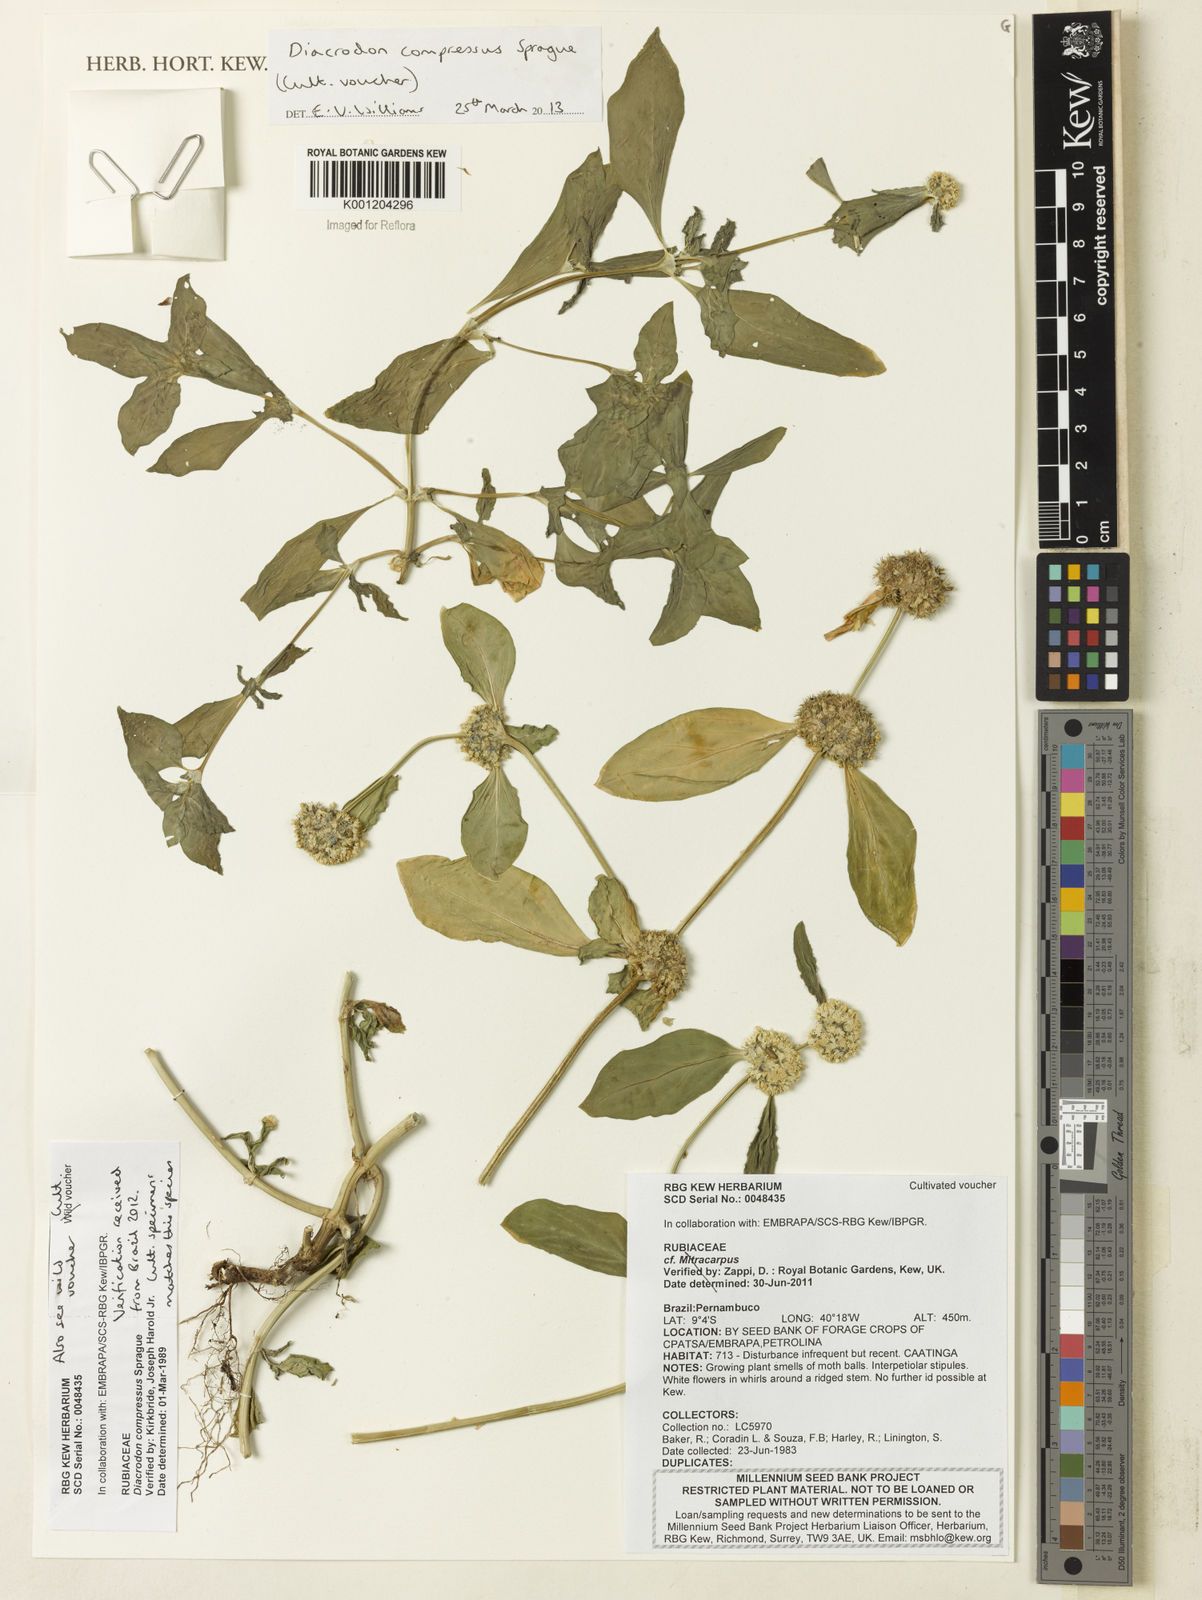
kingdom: Plantae
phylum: Tracheophyta
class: Magnoliopsida
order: Gentianales
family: Rubiaceae
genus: Diacrodon
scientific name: Diacrodon compressus
